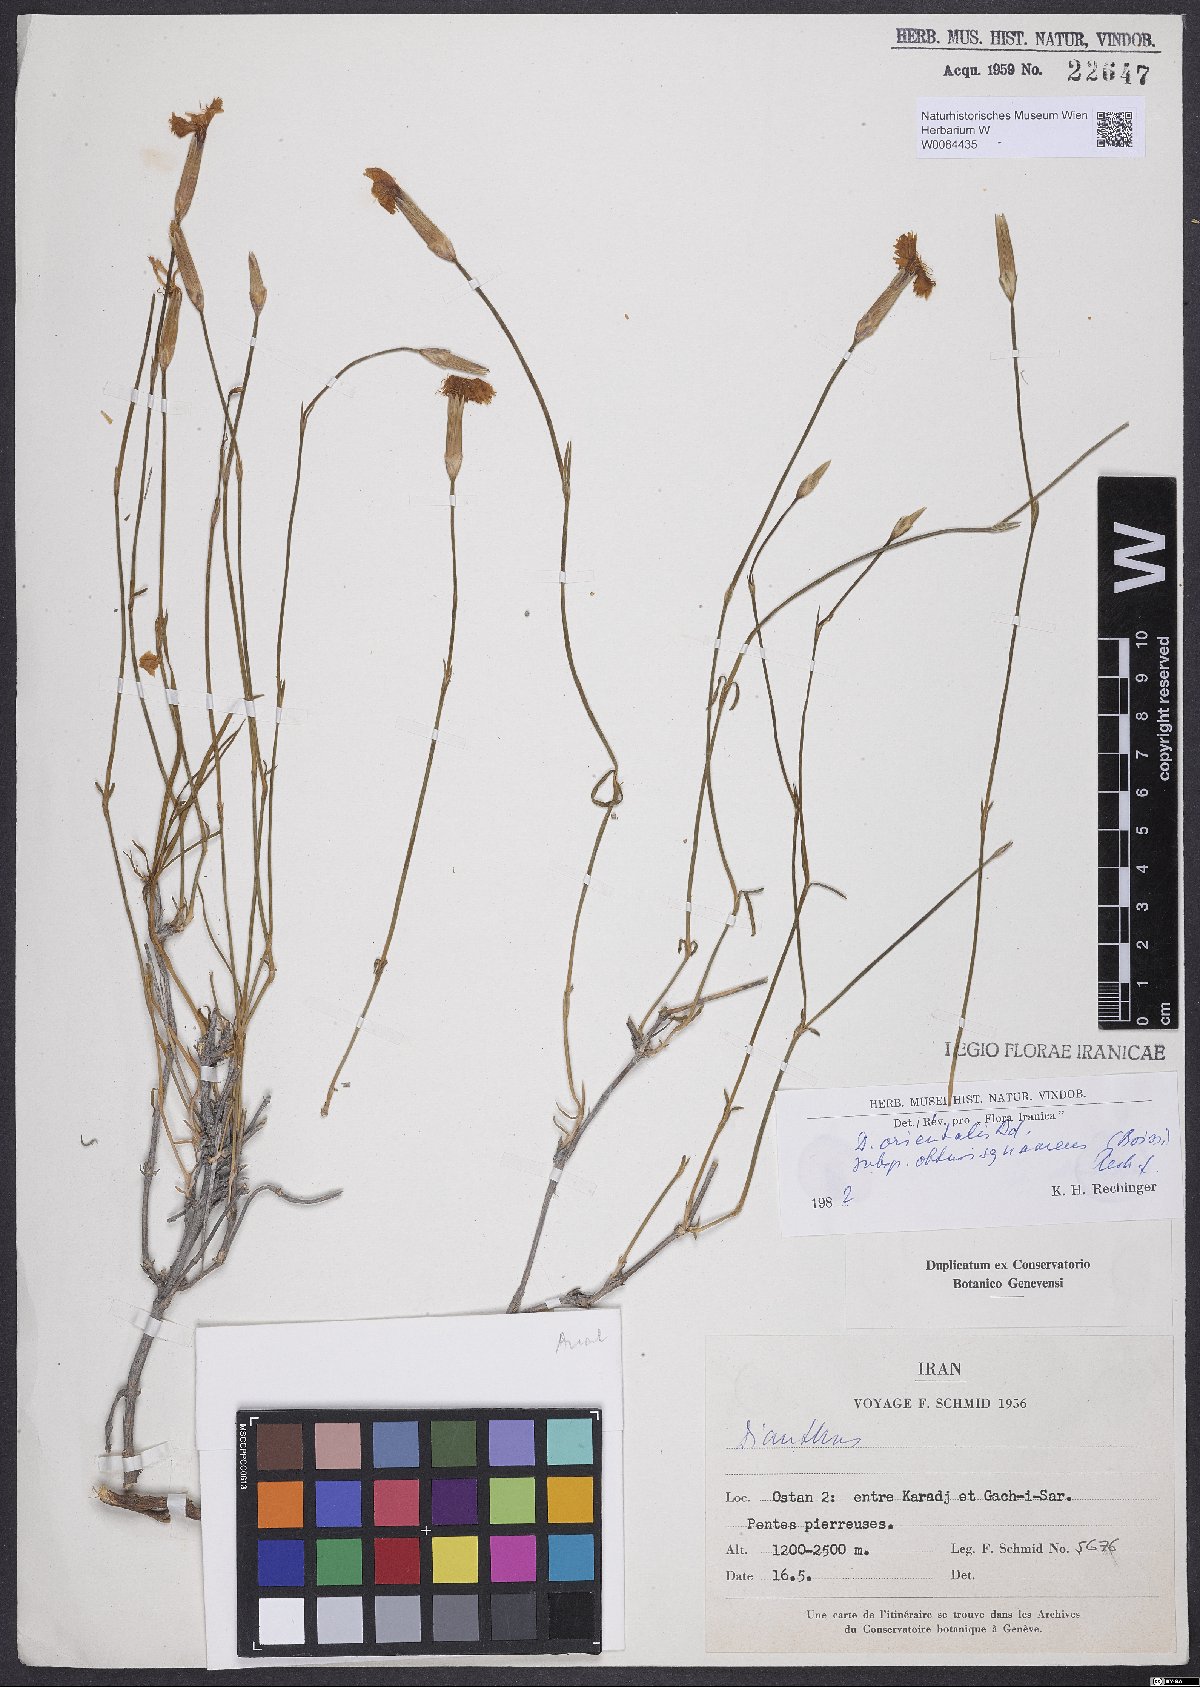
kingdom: Plantae
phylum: Tracheophyta
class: Magnoliopsida
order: Caryophyllales
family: Caryophyllaceae
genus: Dianthus
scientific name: Dianthus orientalis
